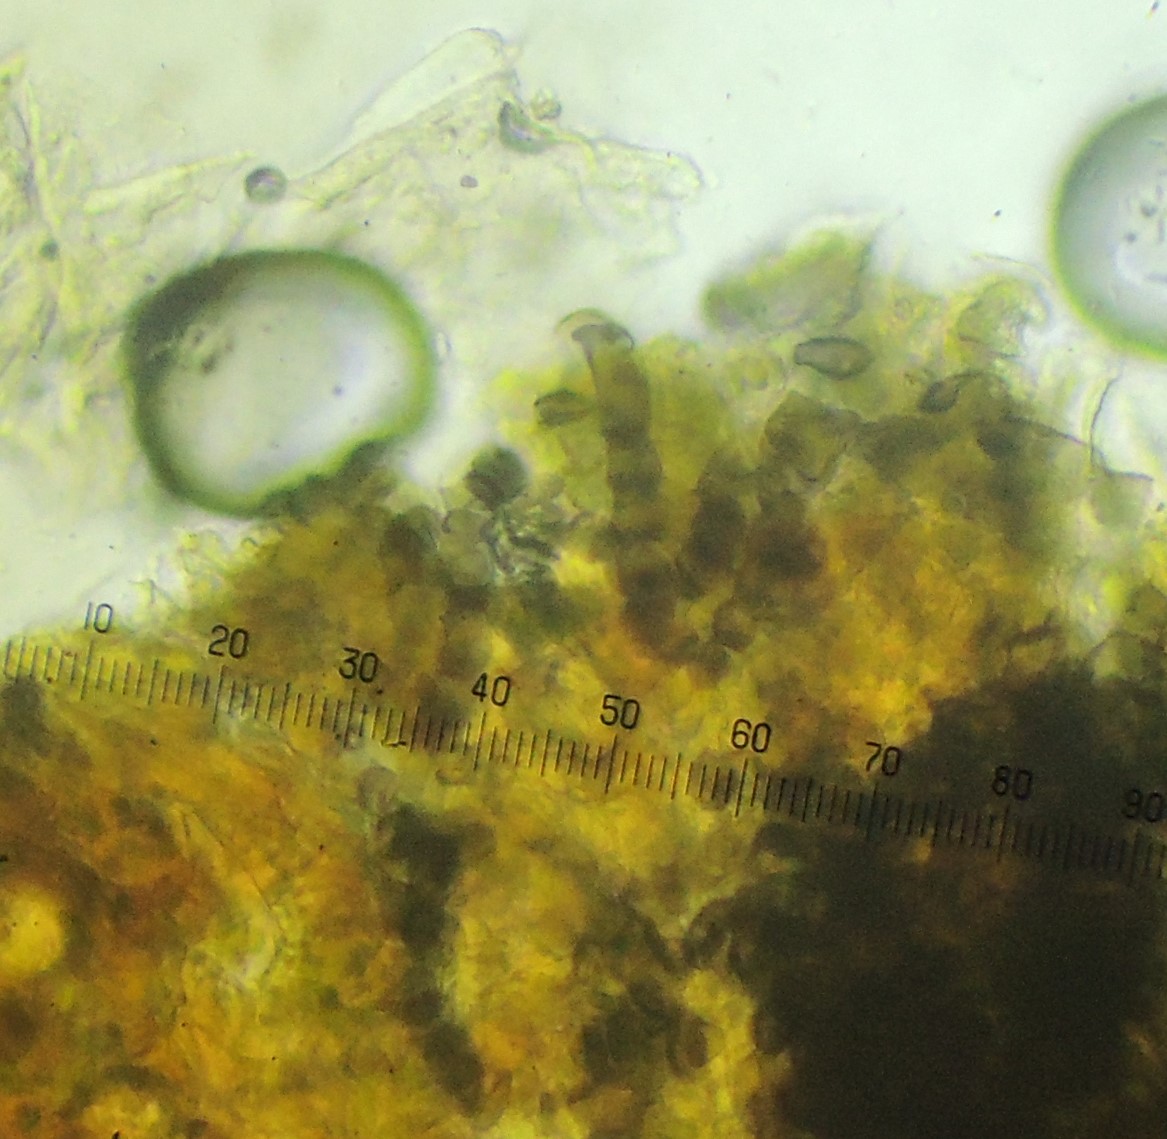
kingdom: Fungi
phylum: Ascomycota
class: Dothideomycetes
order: Mycosphaerellales
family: Mycosphaerellaceae
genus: Polythrincium
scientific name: Polythrincium trifolii
